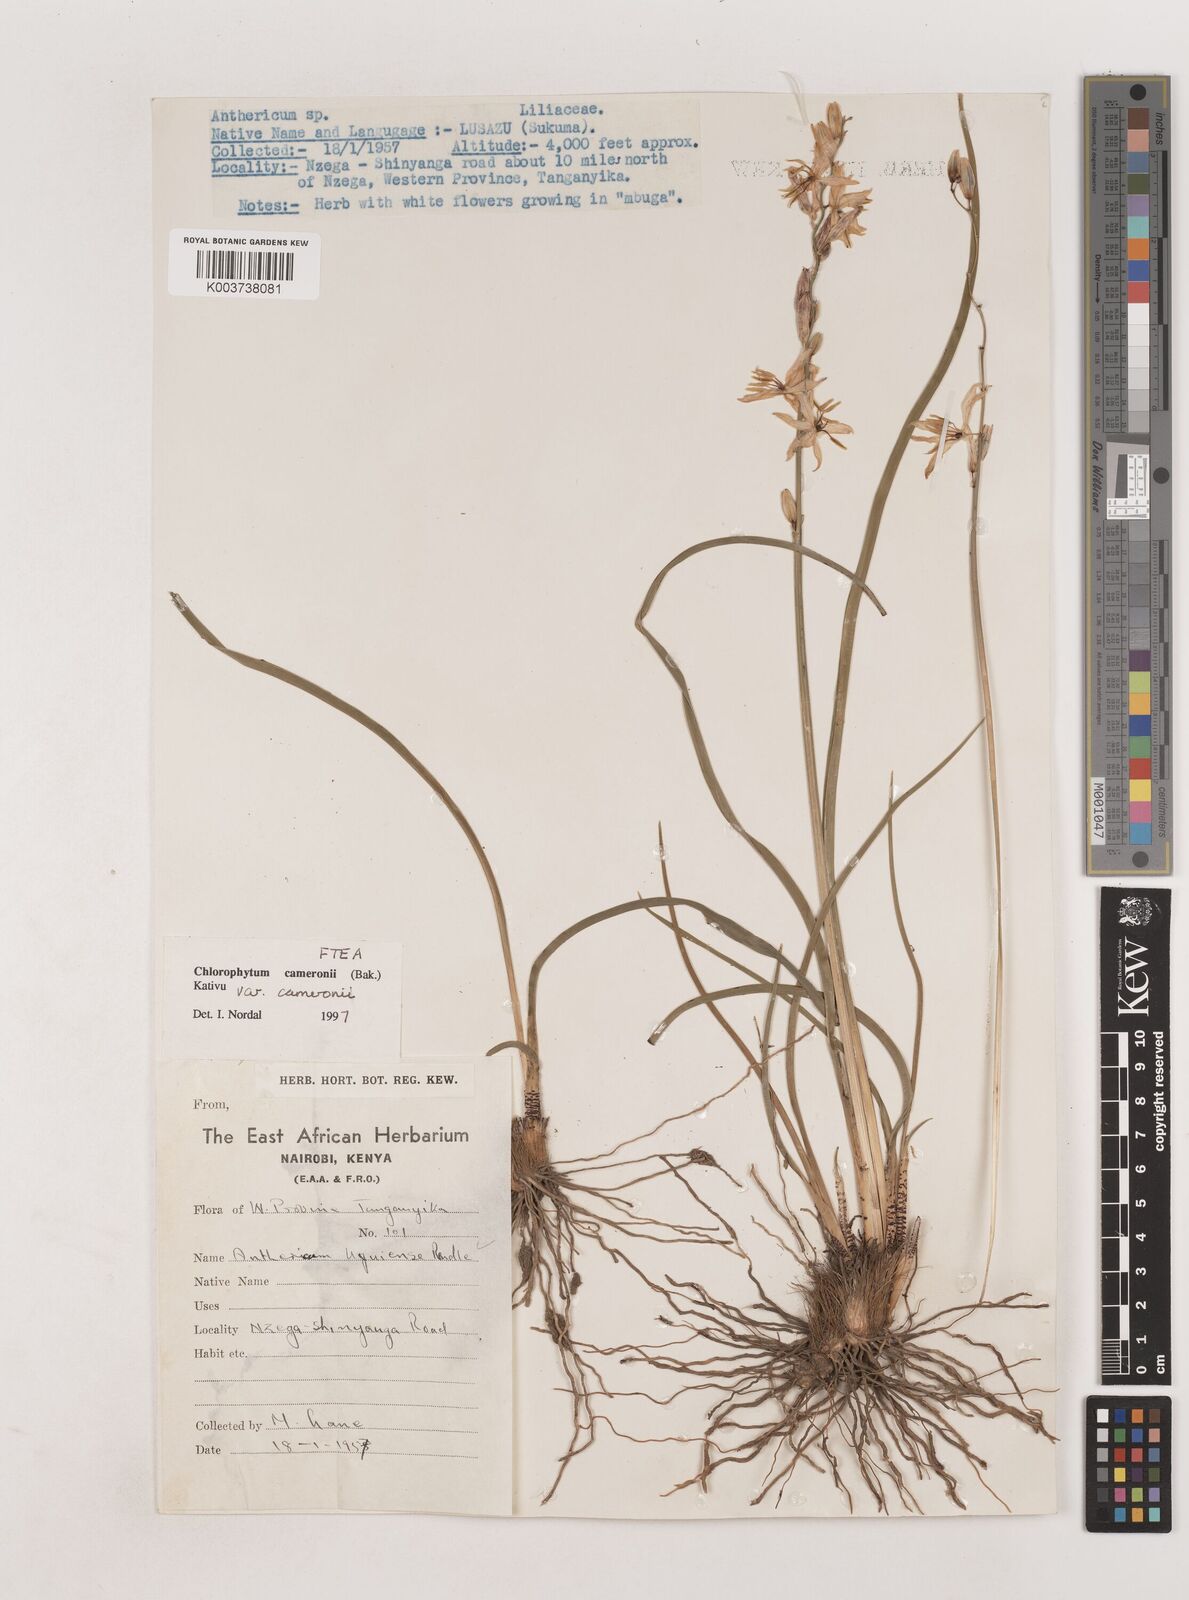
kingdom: Plantae
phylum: Tracheophyta
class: Liliopsida
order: Asparagales
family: Asparagaceae
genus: Chlorophytum
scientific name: Chlorophytum cameronii
